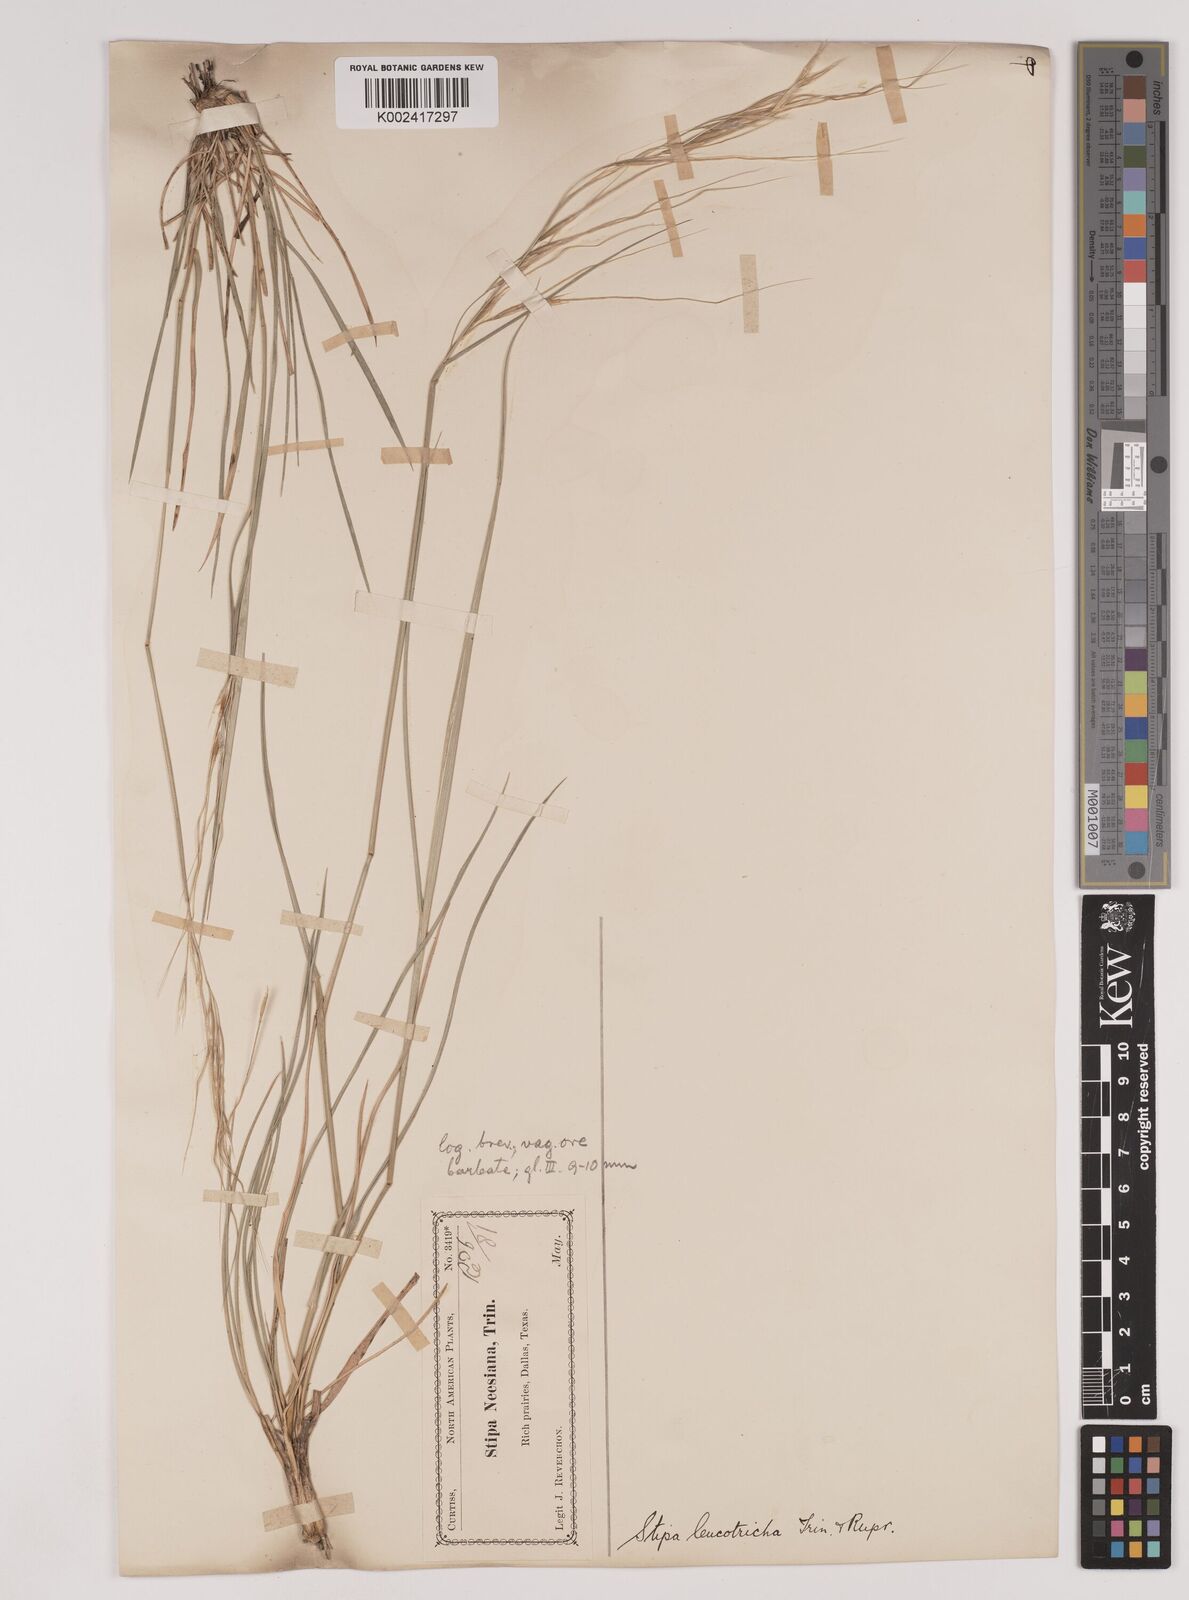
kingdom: Plantae
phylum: Tracheophyta
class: Liliopsida
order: Poales
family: Poaceae
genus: Nassella
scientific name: Nassella leucotricha
